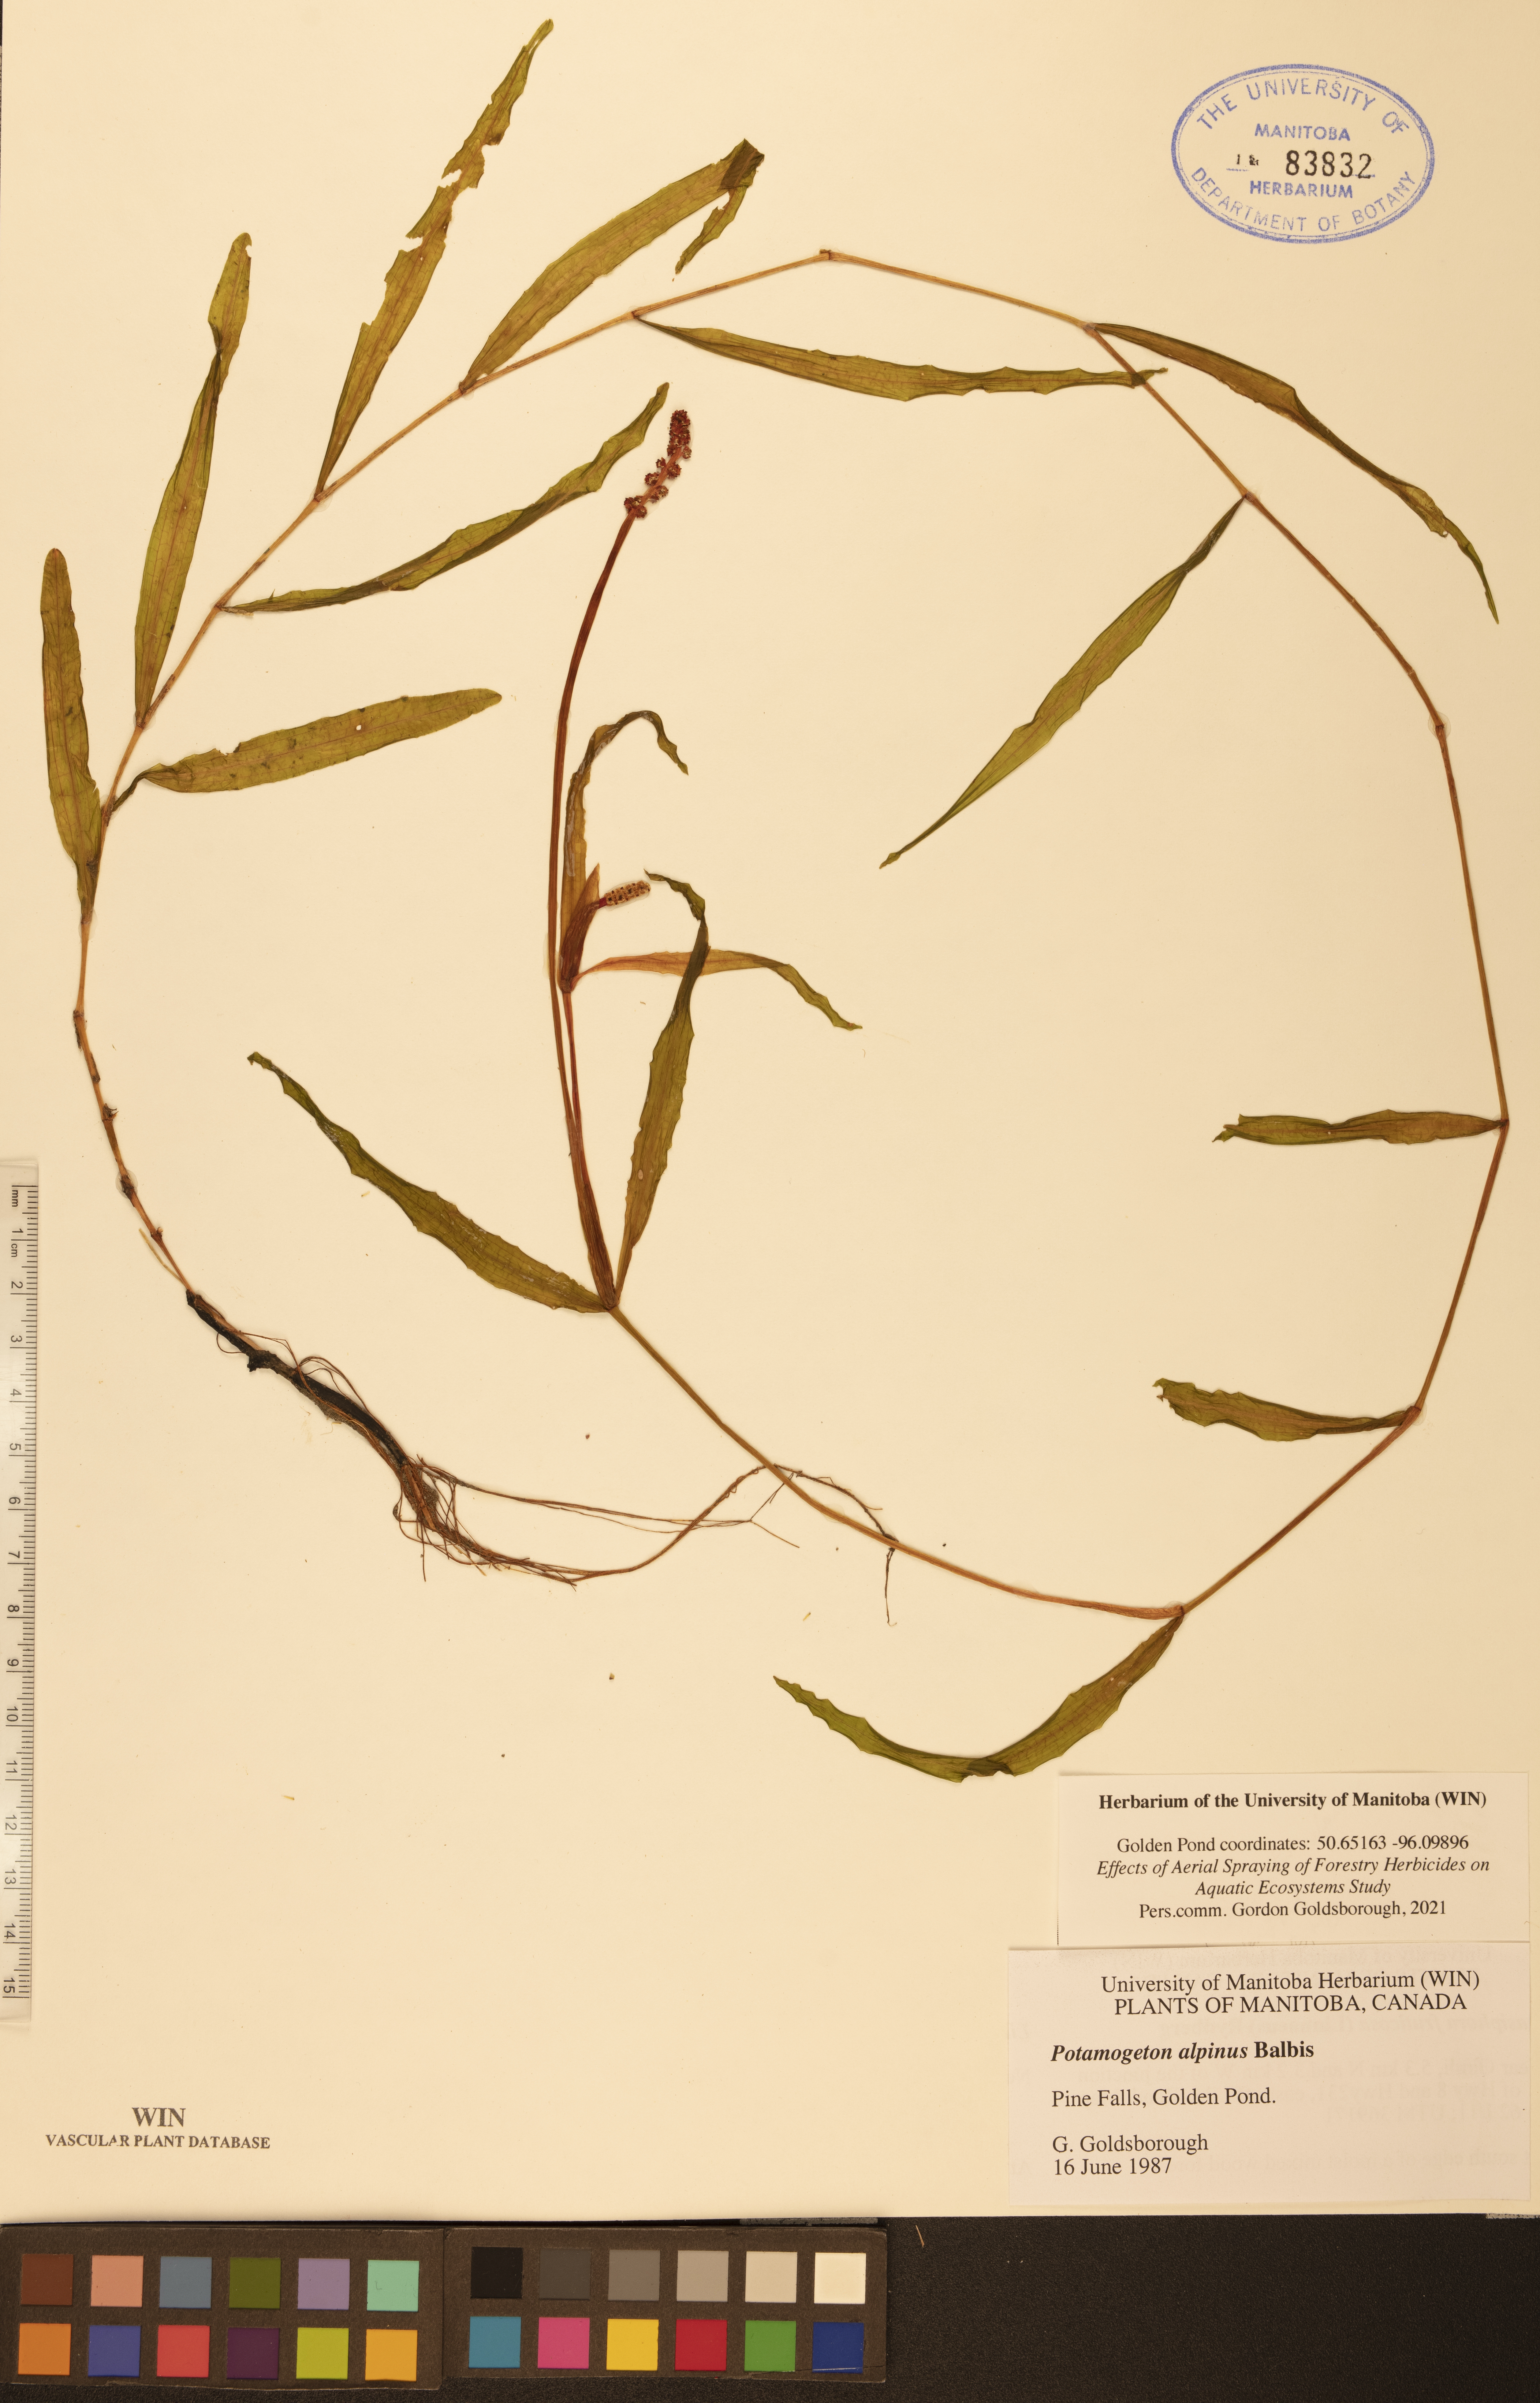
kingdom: Plantae
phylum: Tracheophyta
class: Liliopsida
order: Alismatales
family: Potamogetonaceae
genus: Potamogeton
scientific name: Potamogeton alpinus
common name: Red pondweed
